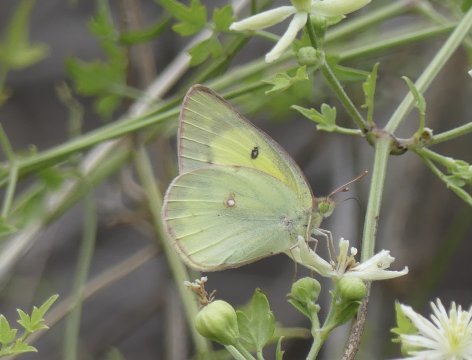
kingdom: Animalia
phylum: Arthropoda
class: Insecta
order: Lepidoptera
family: Pieridae
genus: Colias
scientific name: Colias philodice
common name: Clouded Sulphur
